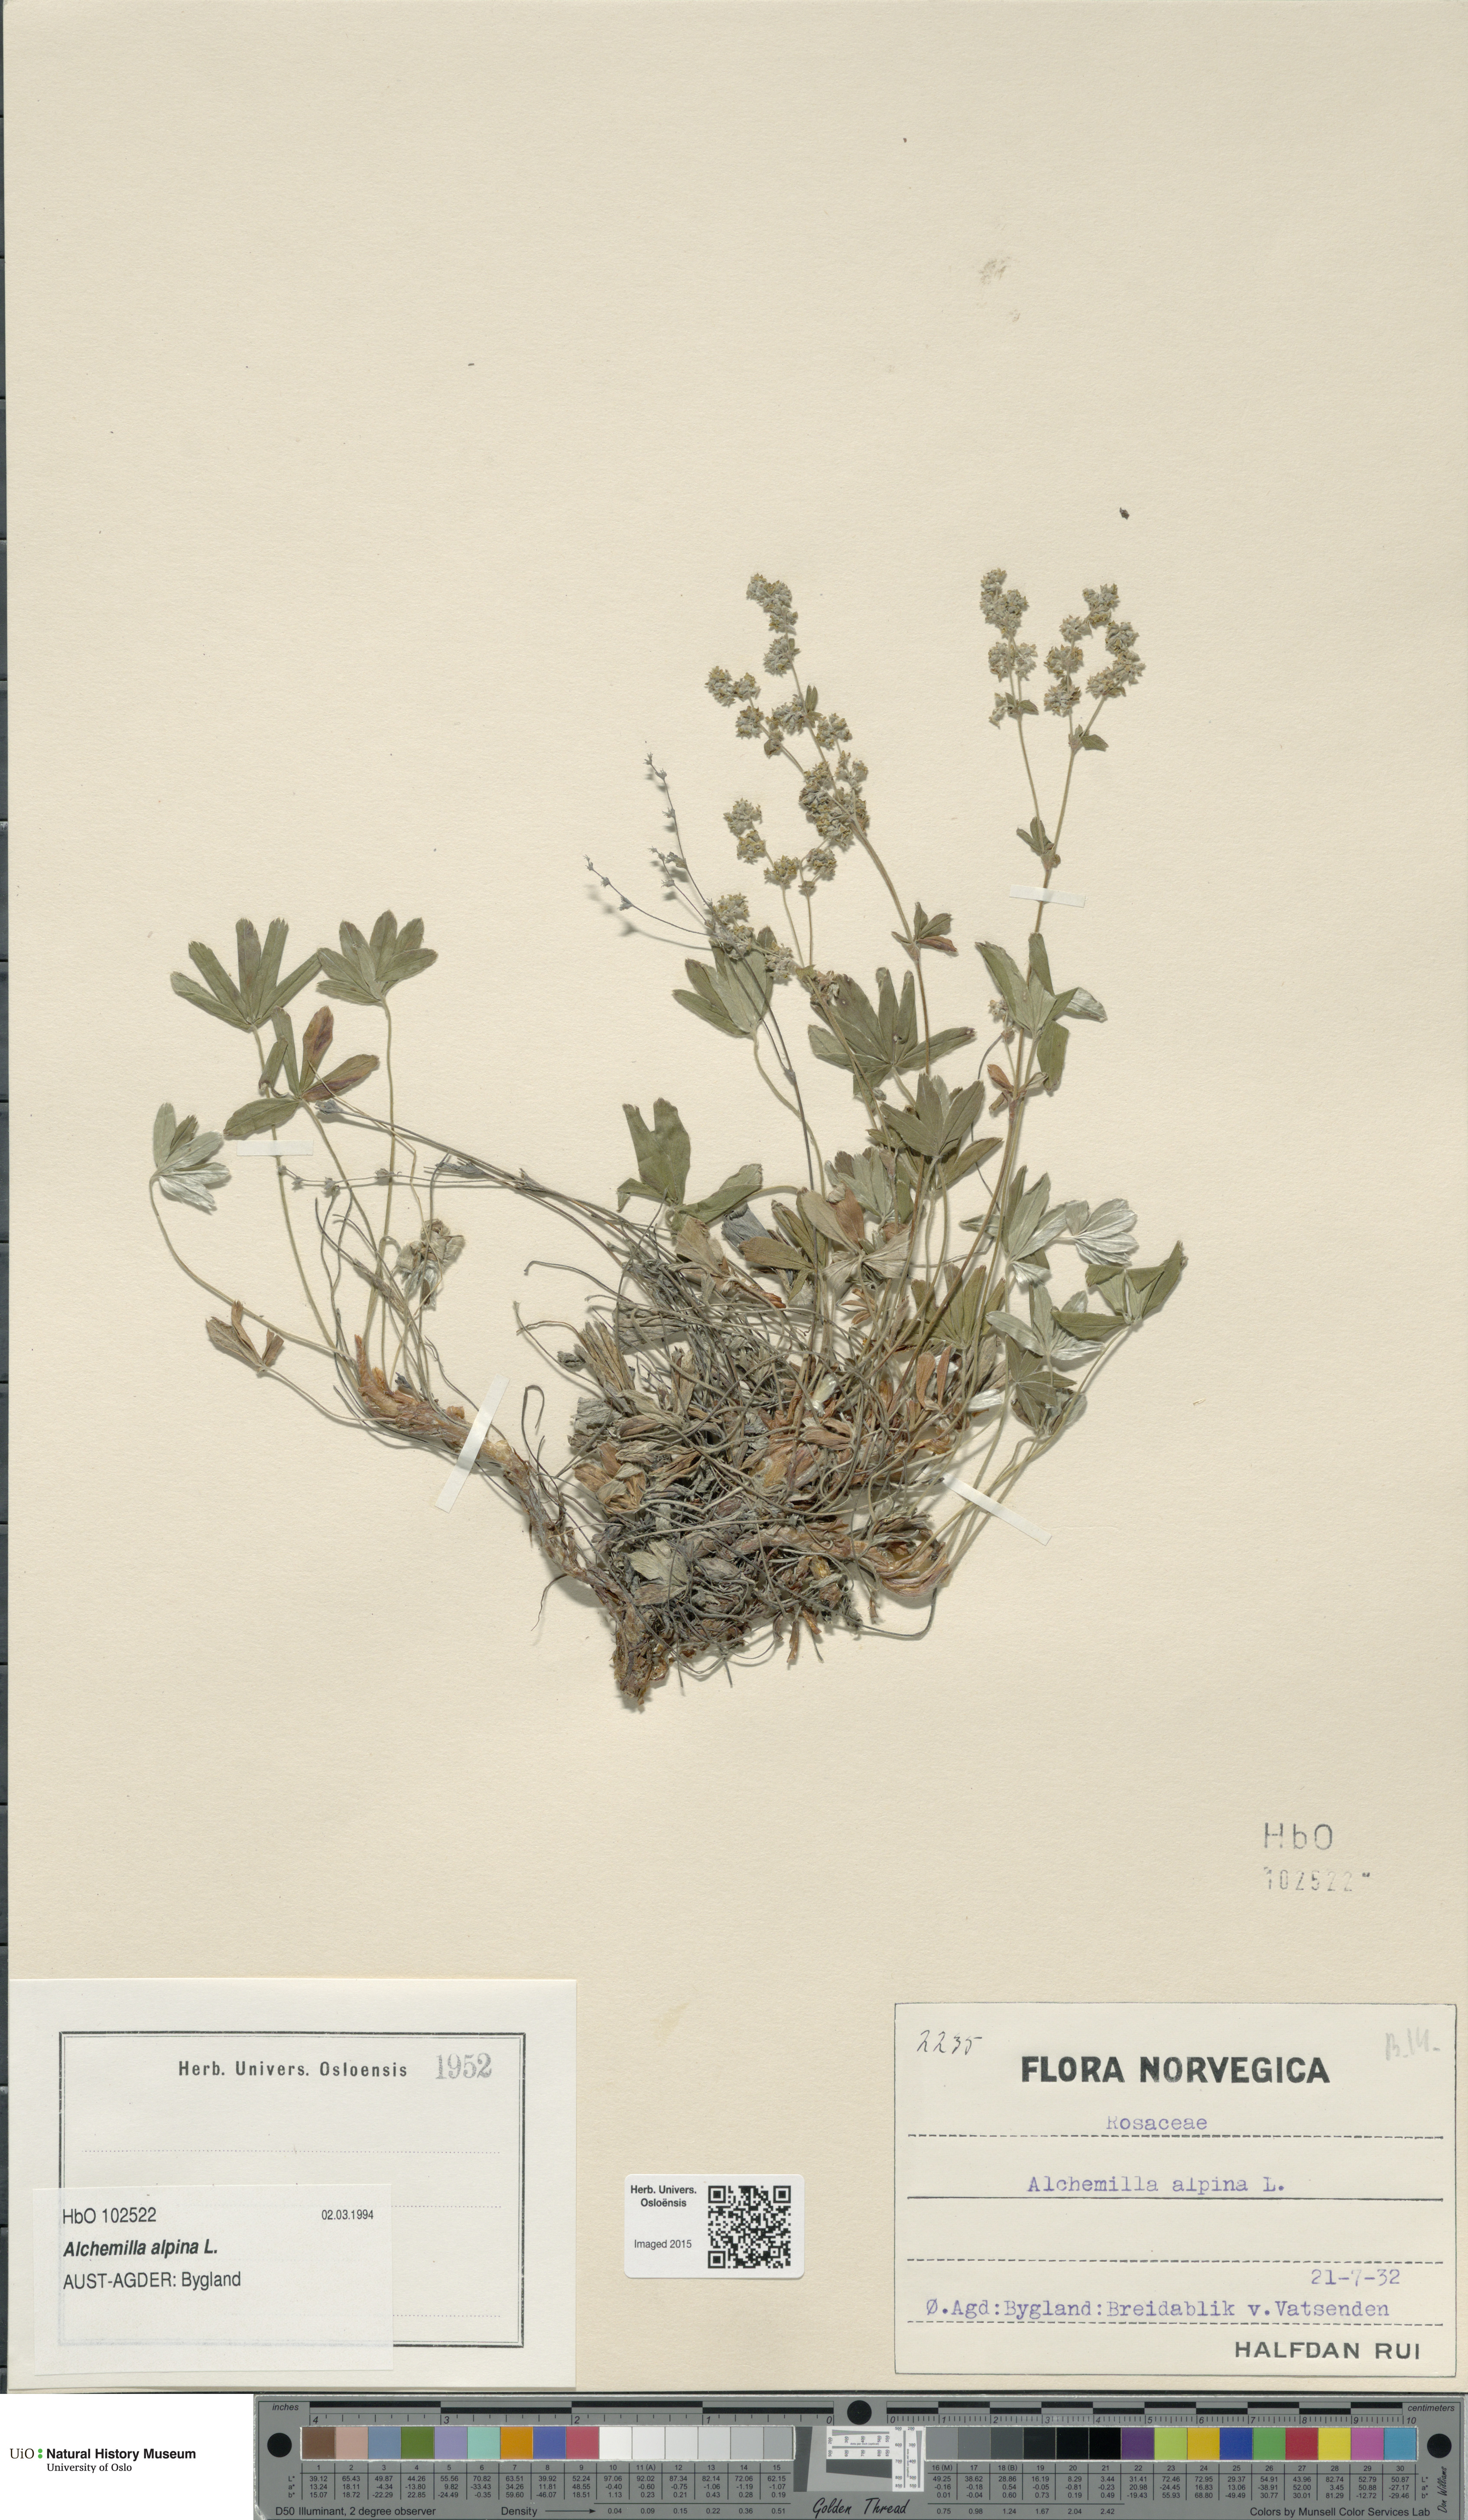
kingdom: Plantae
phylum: Tracheophyta
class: Magnoliopsida
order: Rosales
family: Rosaceae
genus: Alchemilla
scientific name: Alchemilla alpina
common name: Alpine lady's-mantle
